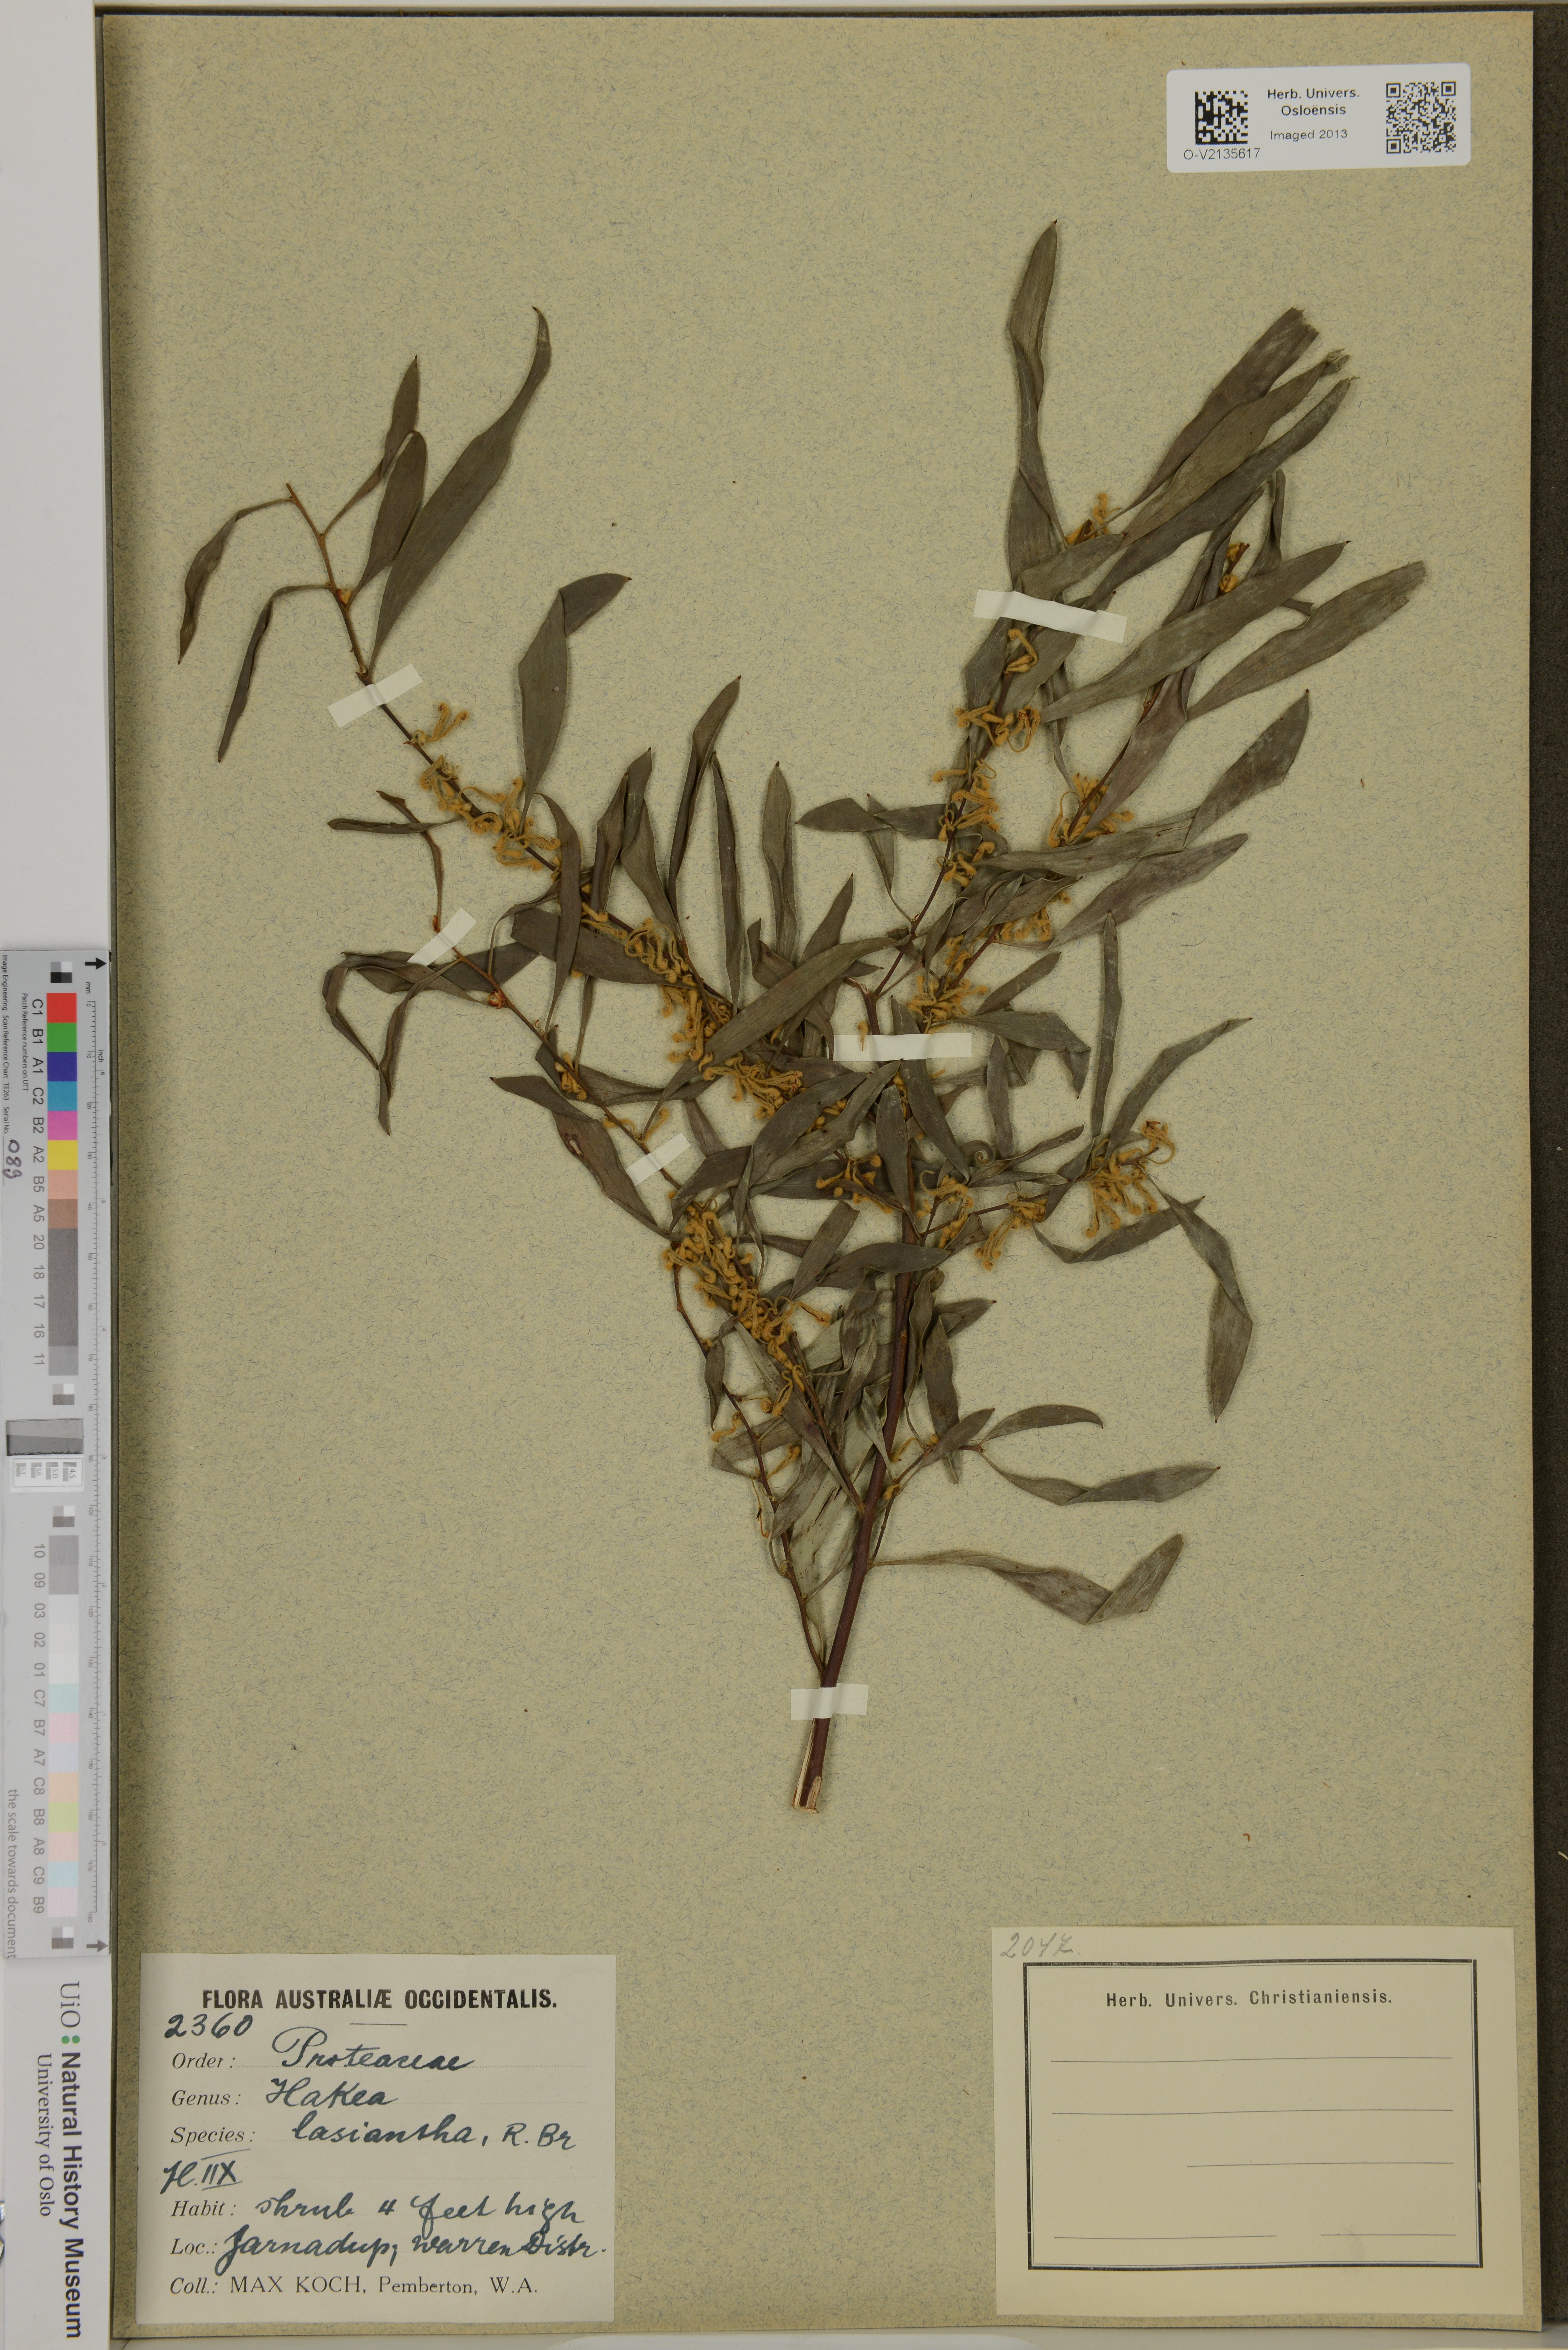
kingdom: Plantae
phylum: Tracheophyta
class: Magnoliopsida
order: Proteales
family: Proteaceae
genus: Hakea
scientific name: Hakea lasiantha
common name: Woolly-flower hakea
